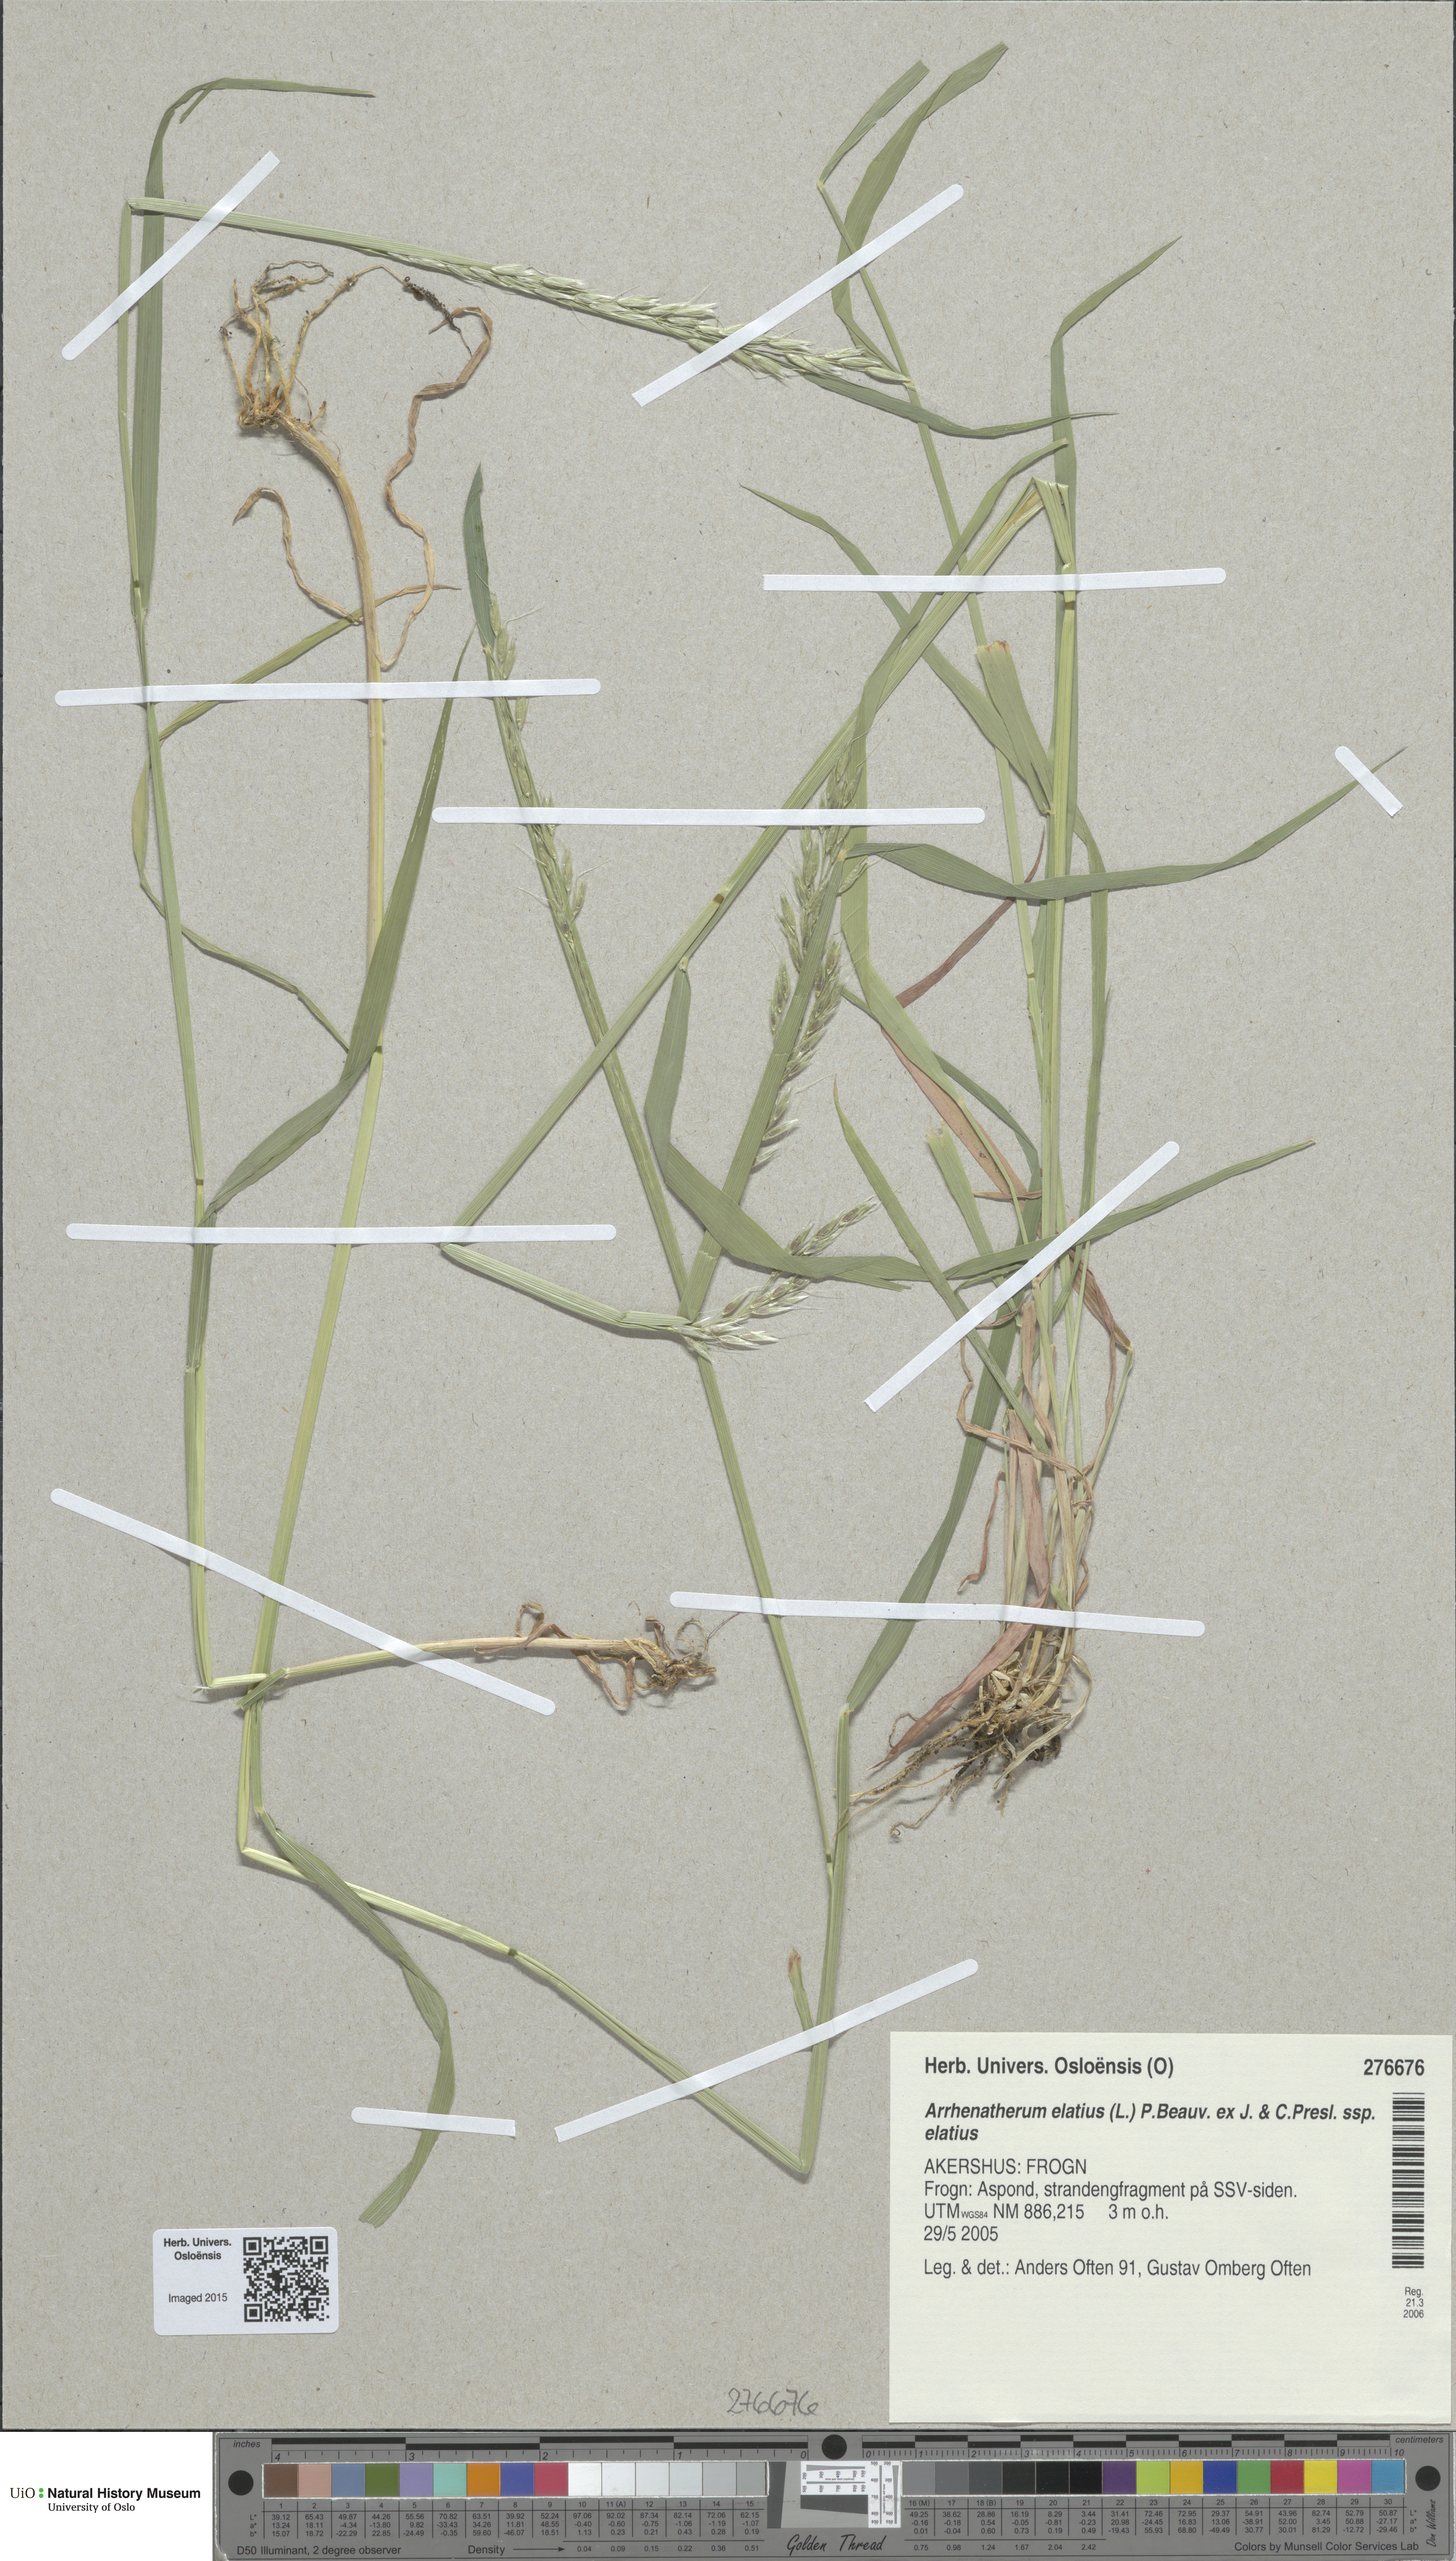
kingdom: Plantae
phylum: Tracheophyta
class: Liliopsida
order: Poales
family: Poaceae
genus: Arrhenatherum
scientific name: Arrhenatherum elatius
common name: Tall oatgrass
